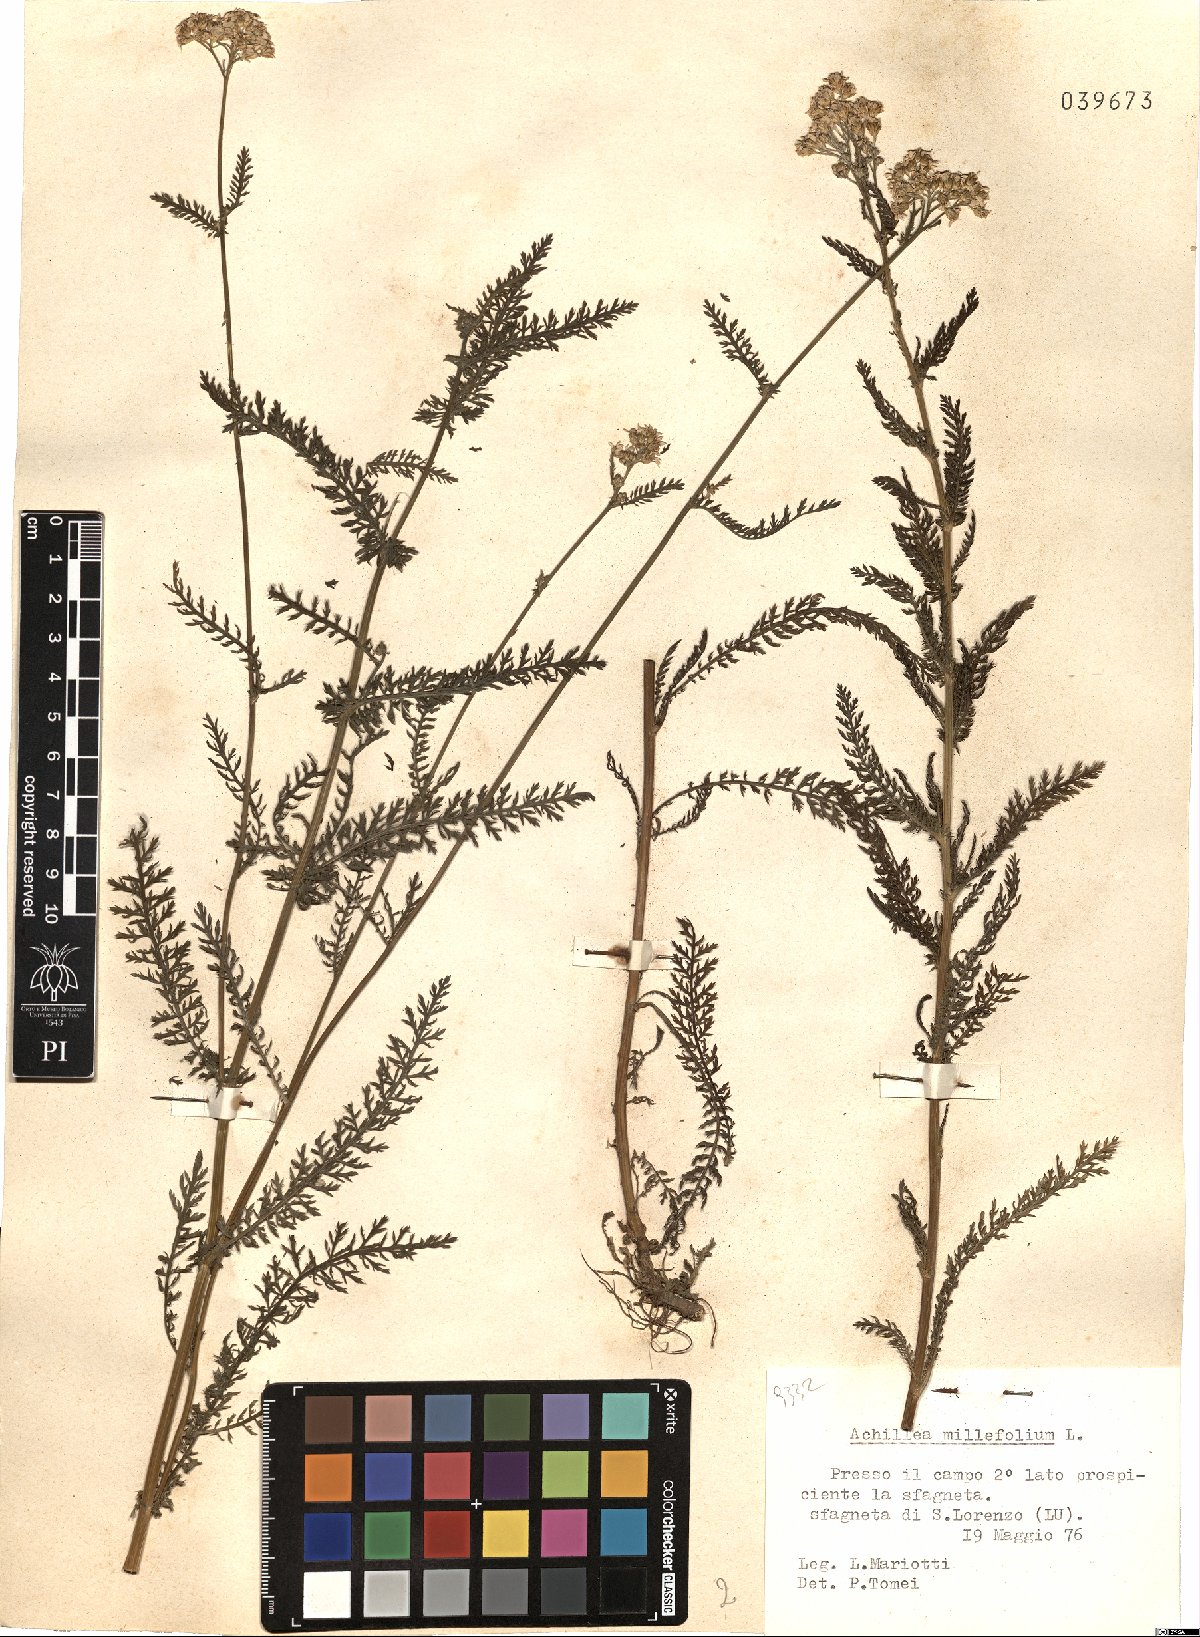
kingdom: Plantae
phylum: Tracheophyta
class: Magnoliopsida
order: Asterales
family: Asteraceae
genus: Achillea
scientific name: Achillea millefolium
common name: Yarrow
